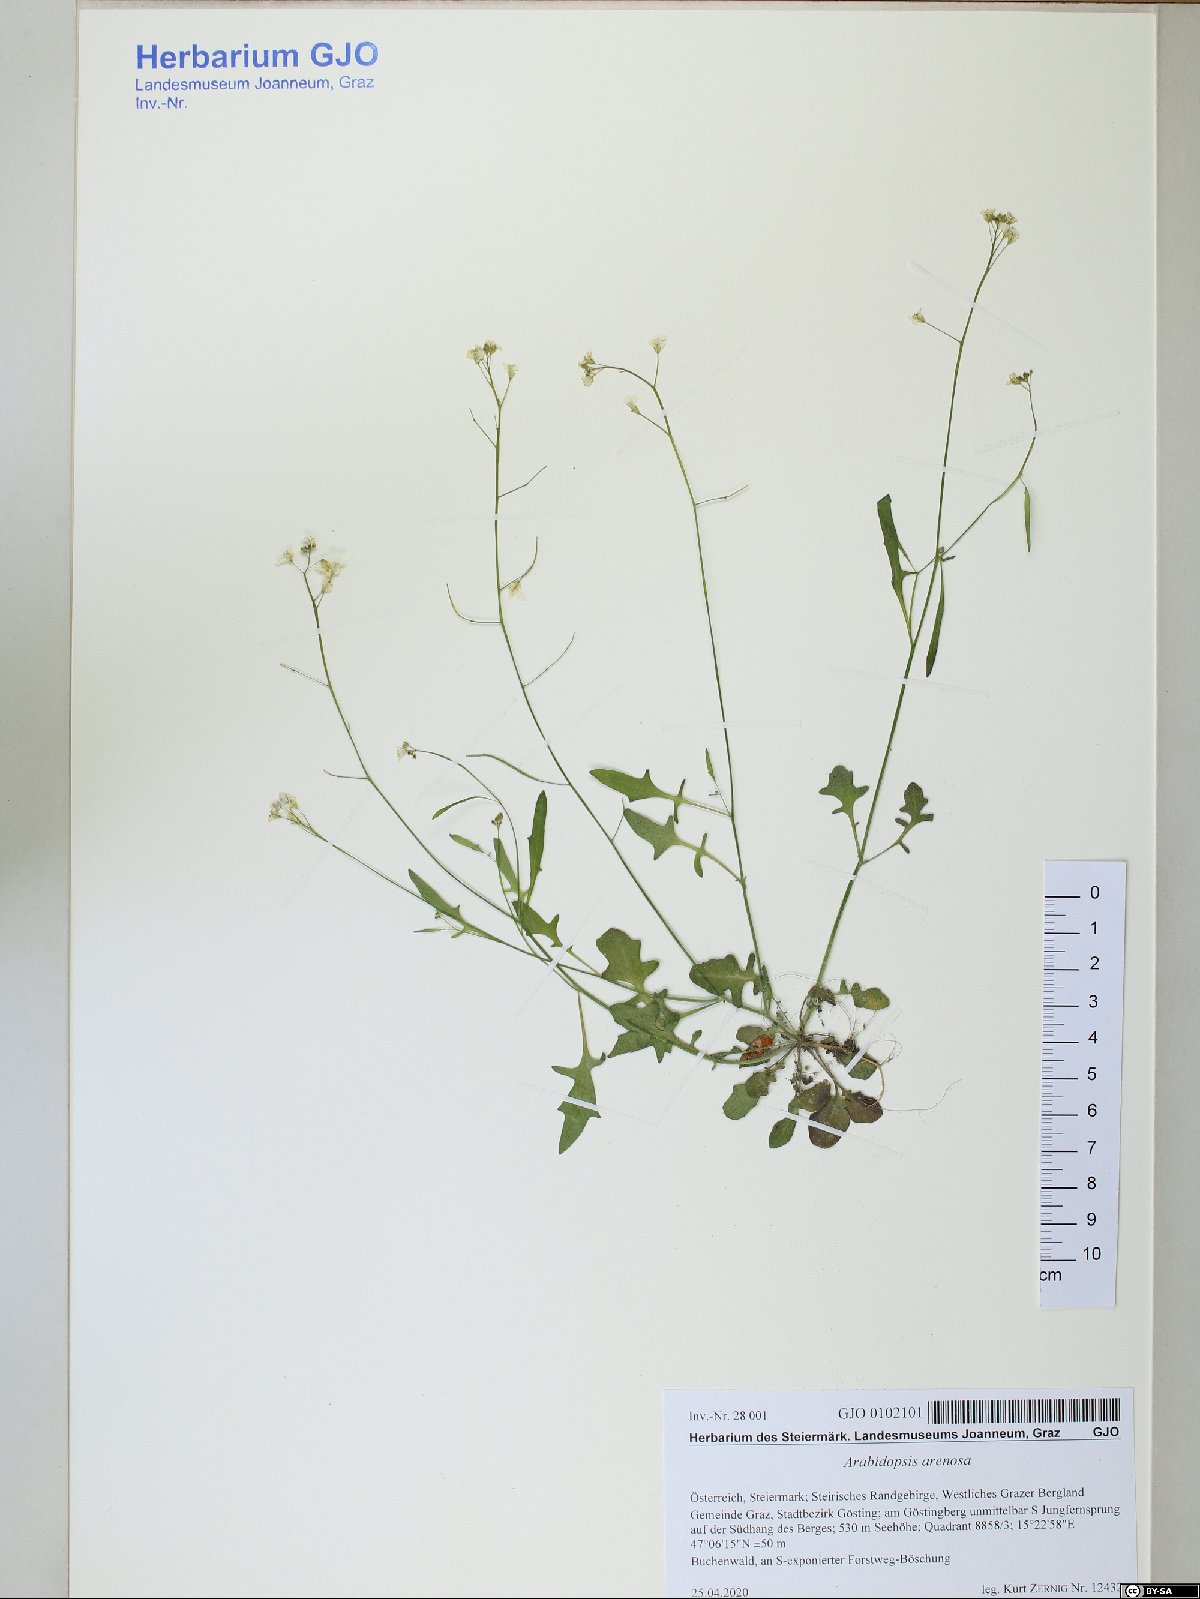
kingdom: Plantae
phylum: Tracheophyta
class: Magnoliopsida
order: Brassicales
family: Brassicaceae
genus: Arabidopsis
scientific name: Arabidopsis arenosa
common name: Sand rock-cress
